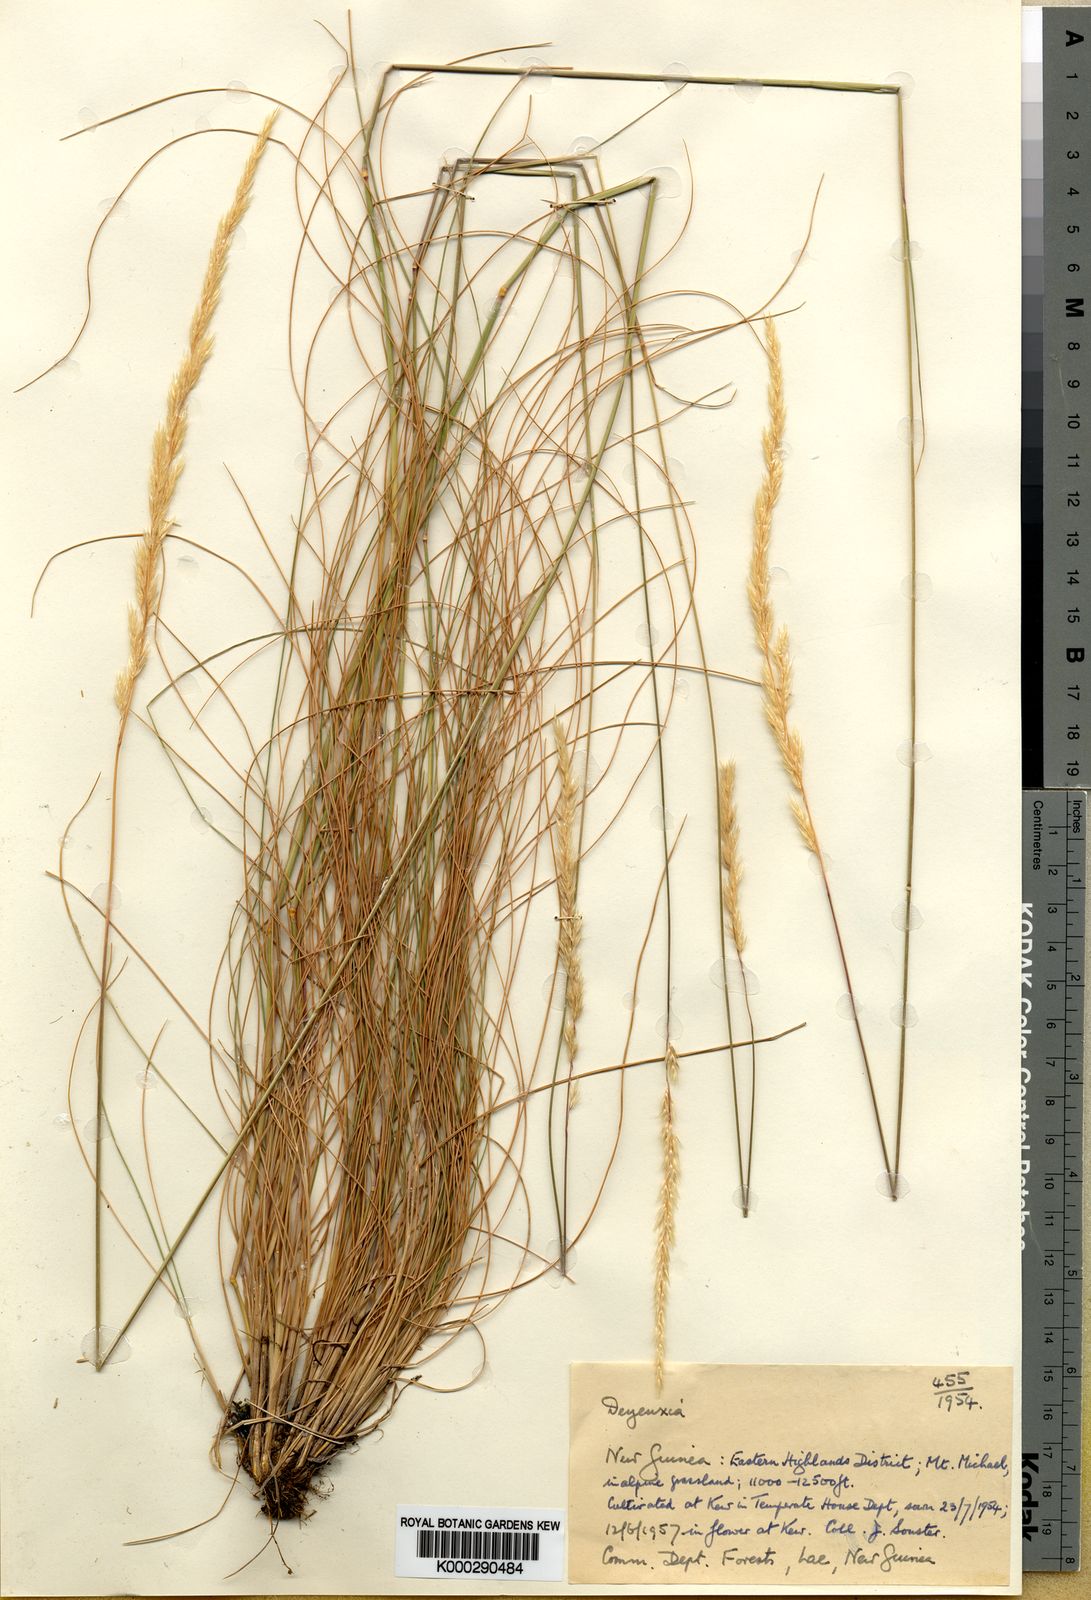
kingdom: Plantae
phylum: Tracheophyta
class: Liliopsida
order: Poales
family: Poaceae
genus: Calamagrostis
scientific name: Calamagrostis filifolia
